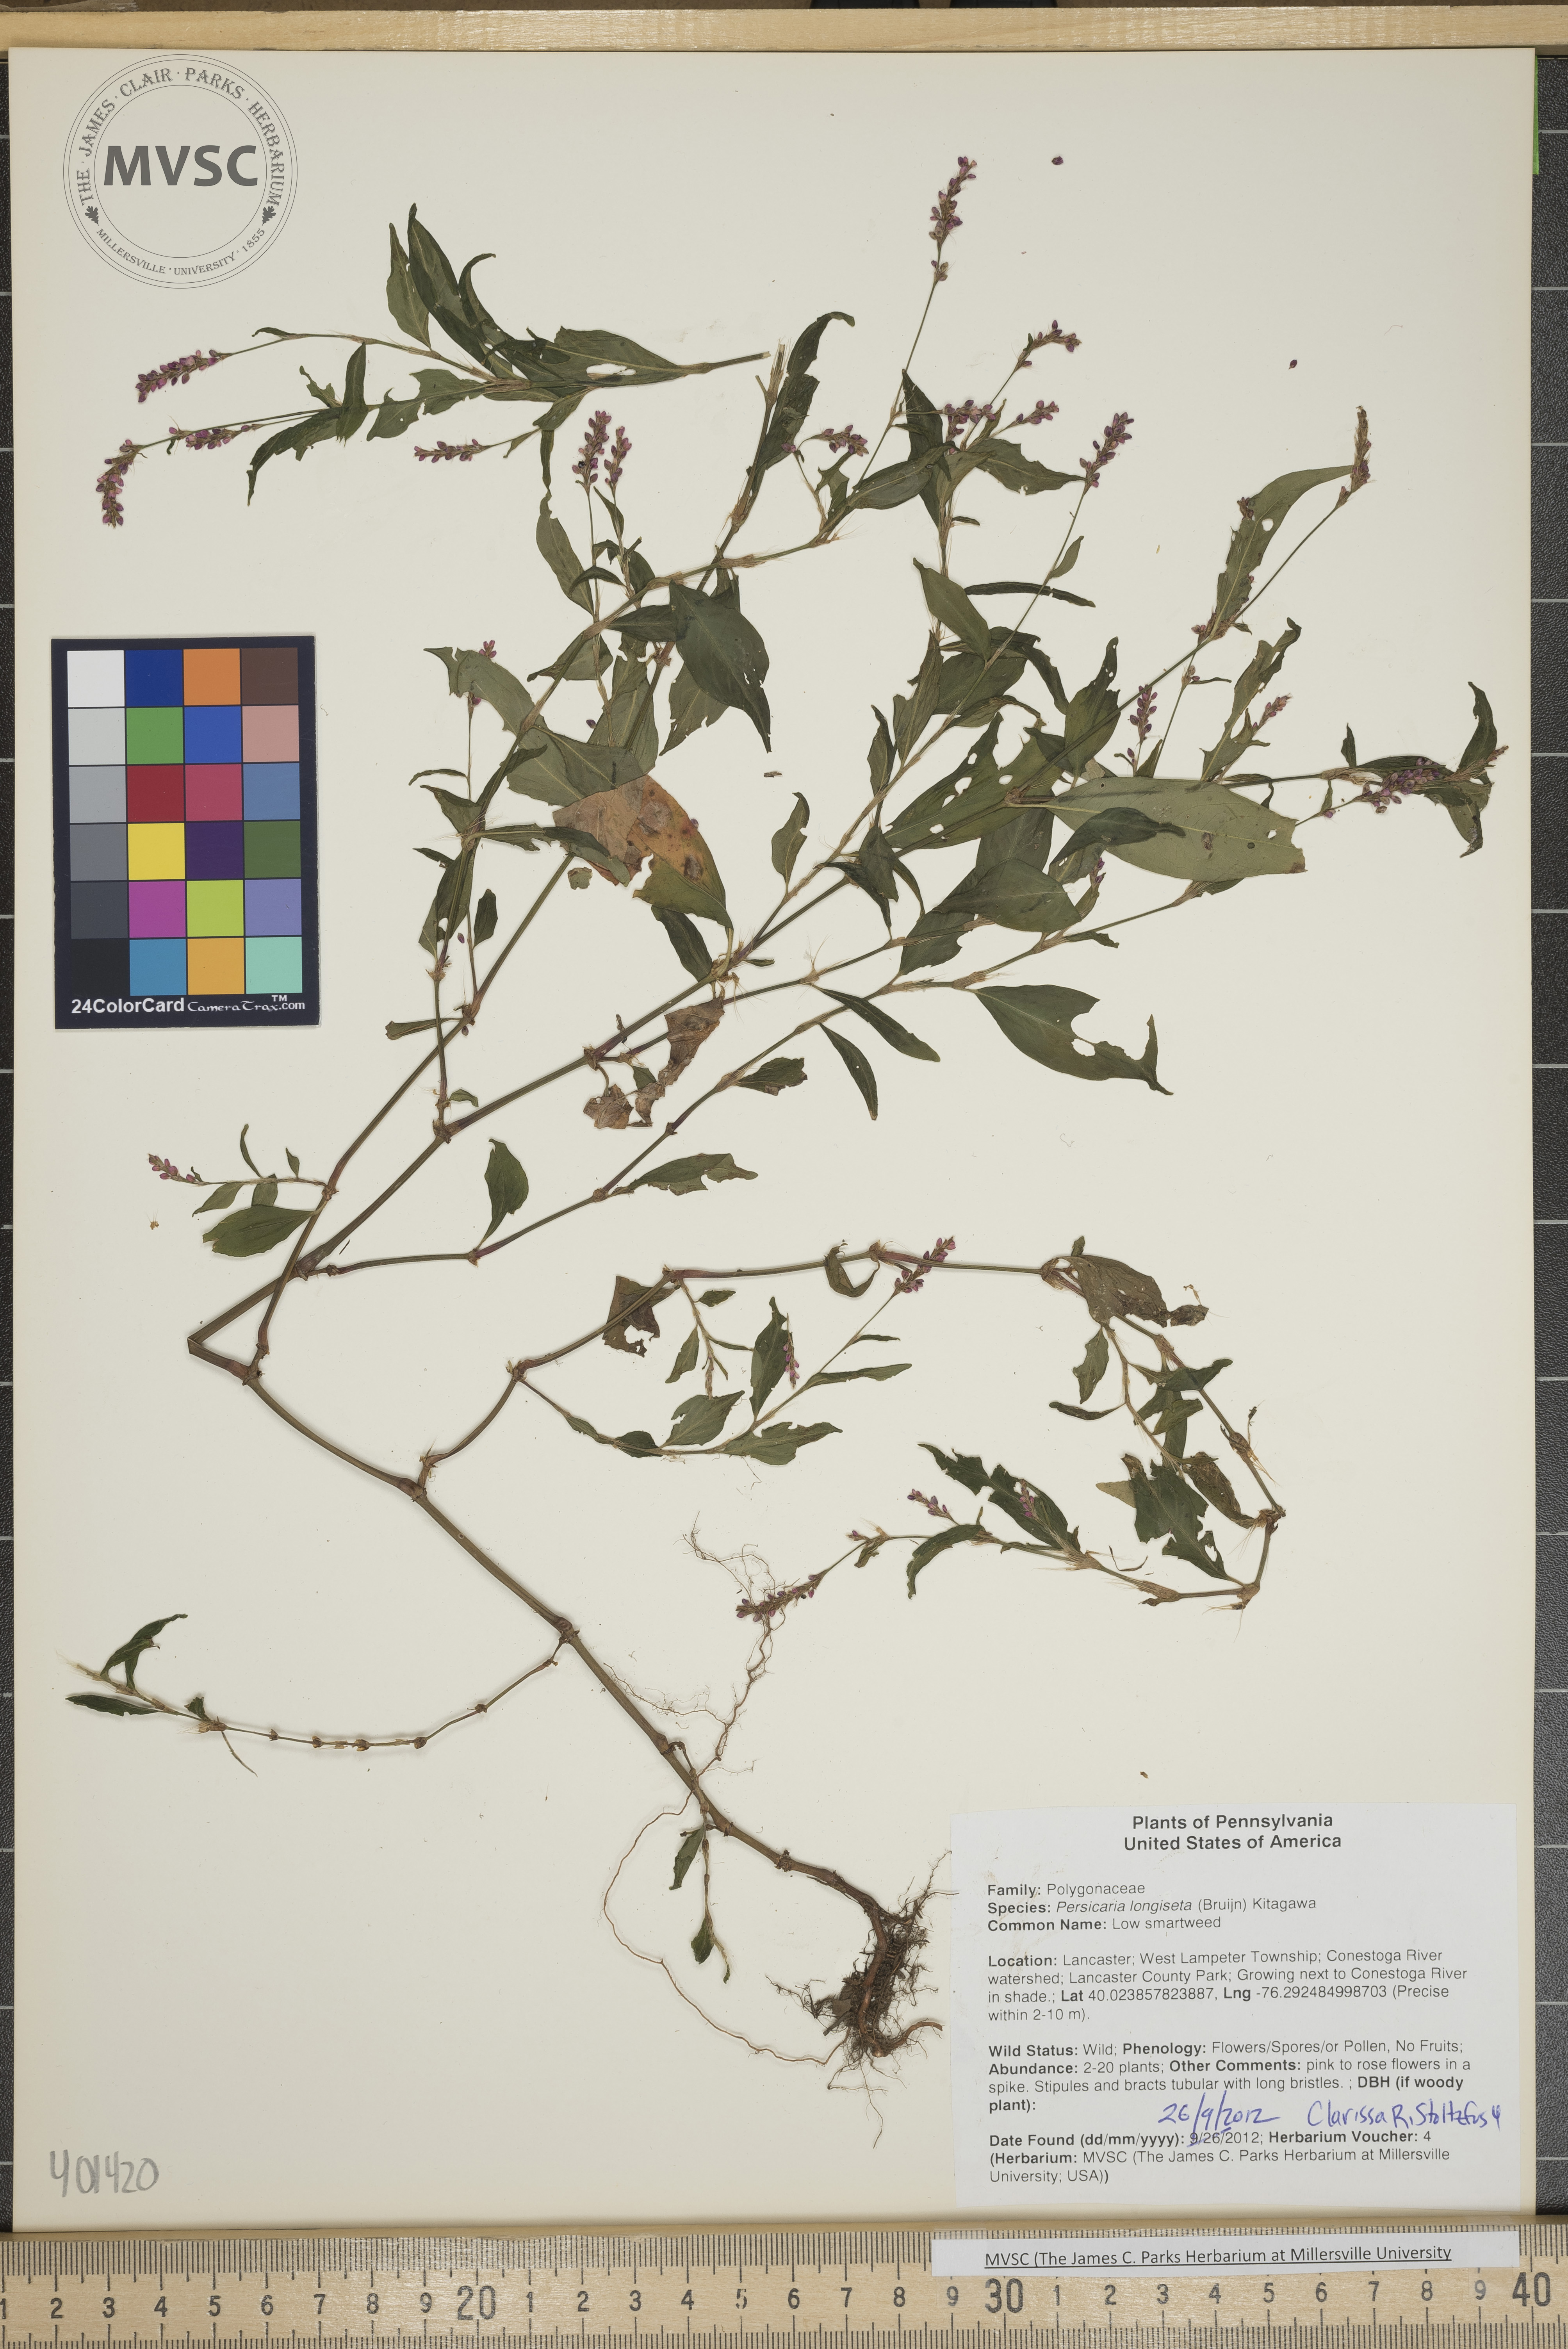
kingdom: Plantae
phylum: Tracheophyta
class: Magnoliopsida
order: Caryophyllales
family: Polygonaceae
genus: Persicaria
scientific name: Persicaria longiseta
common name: Low smartweed
